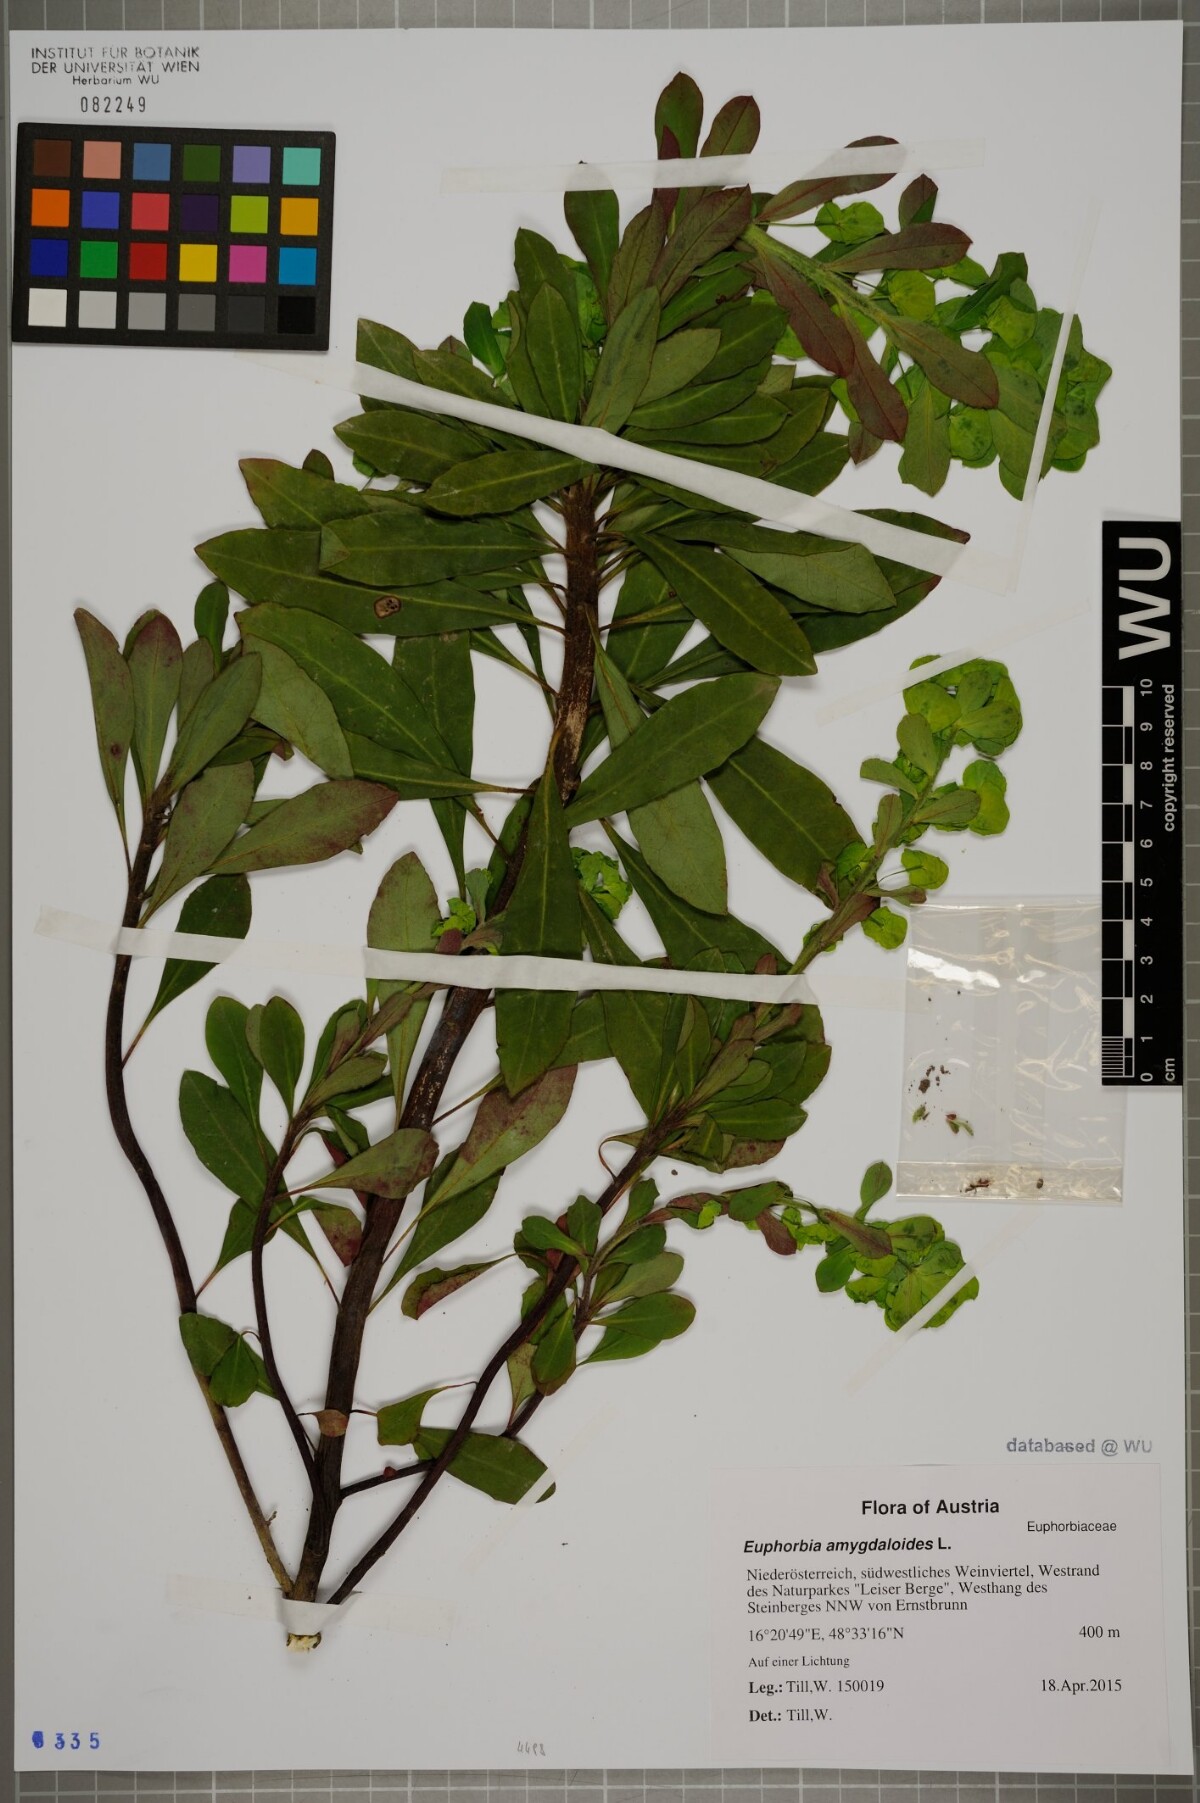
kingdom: Plantae
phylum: Tracheophyta
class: Magnoliopsida
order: Malpighiales
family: Euphorbiaceae
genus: Euphorbia
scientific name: Euphorbia amygdaloides
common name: Wood spurge
